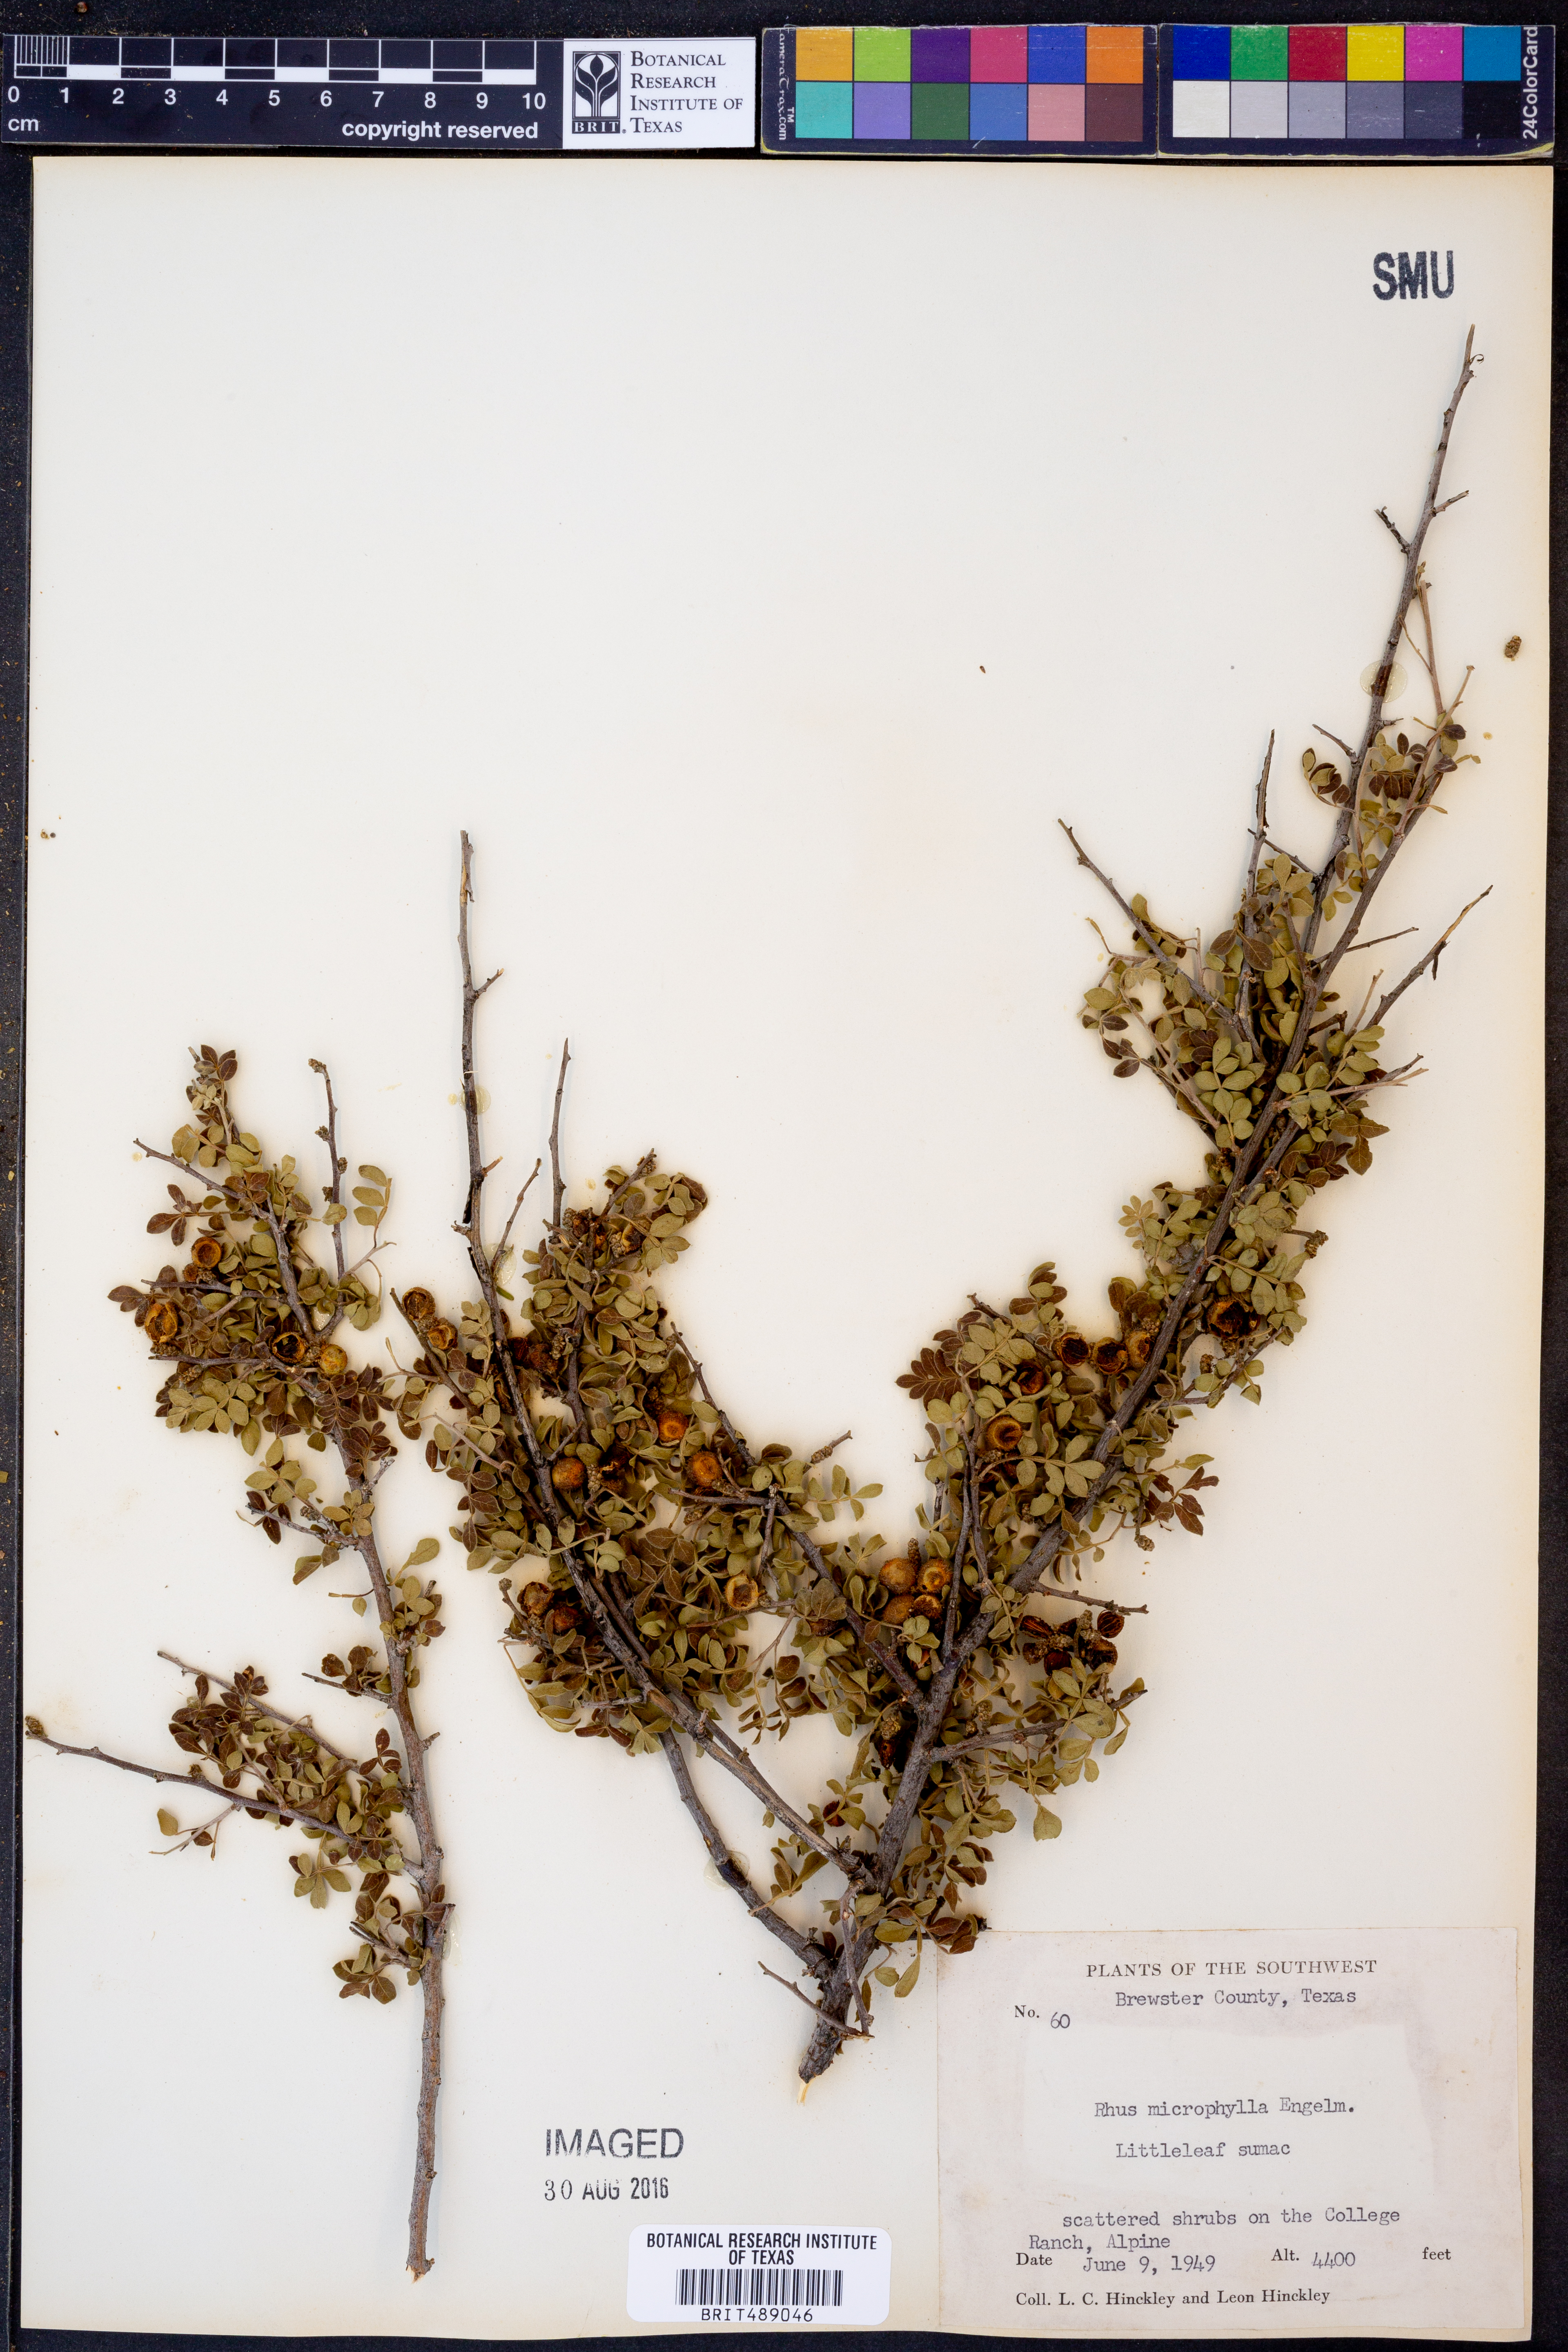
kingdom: Plantae
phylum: Tracheophyta
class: Magnoliopsida
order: Sapindales
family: Anacardiaceae
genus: Rhus
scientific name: Rhus microphylla
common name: Desert sumac
